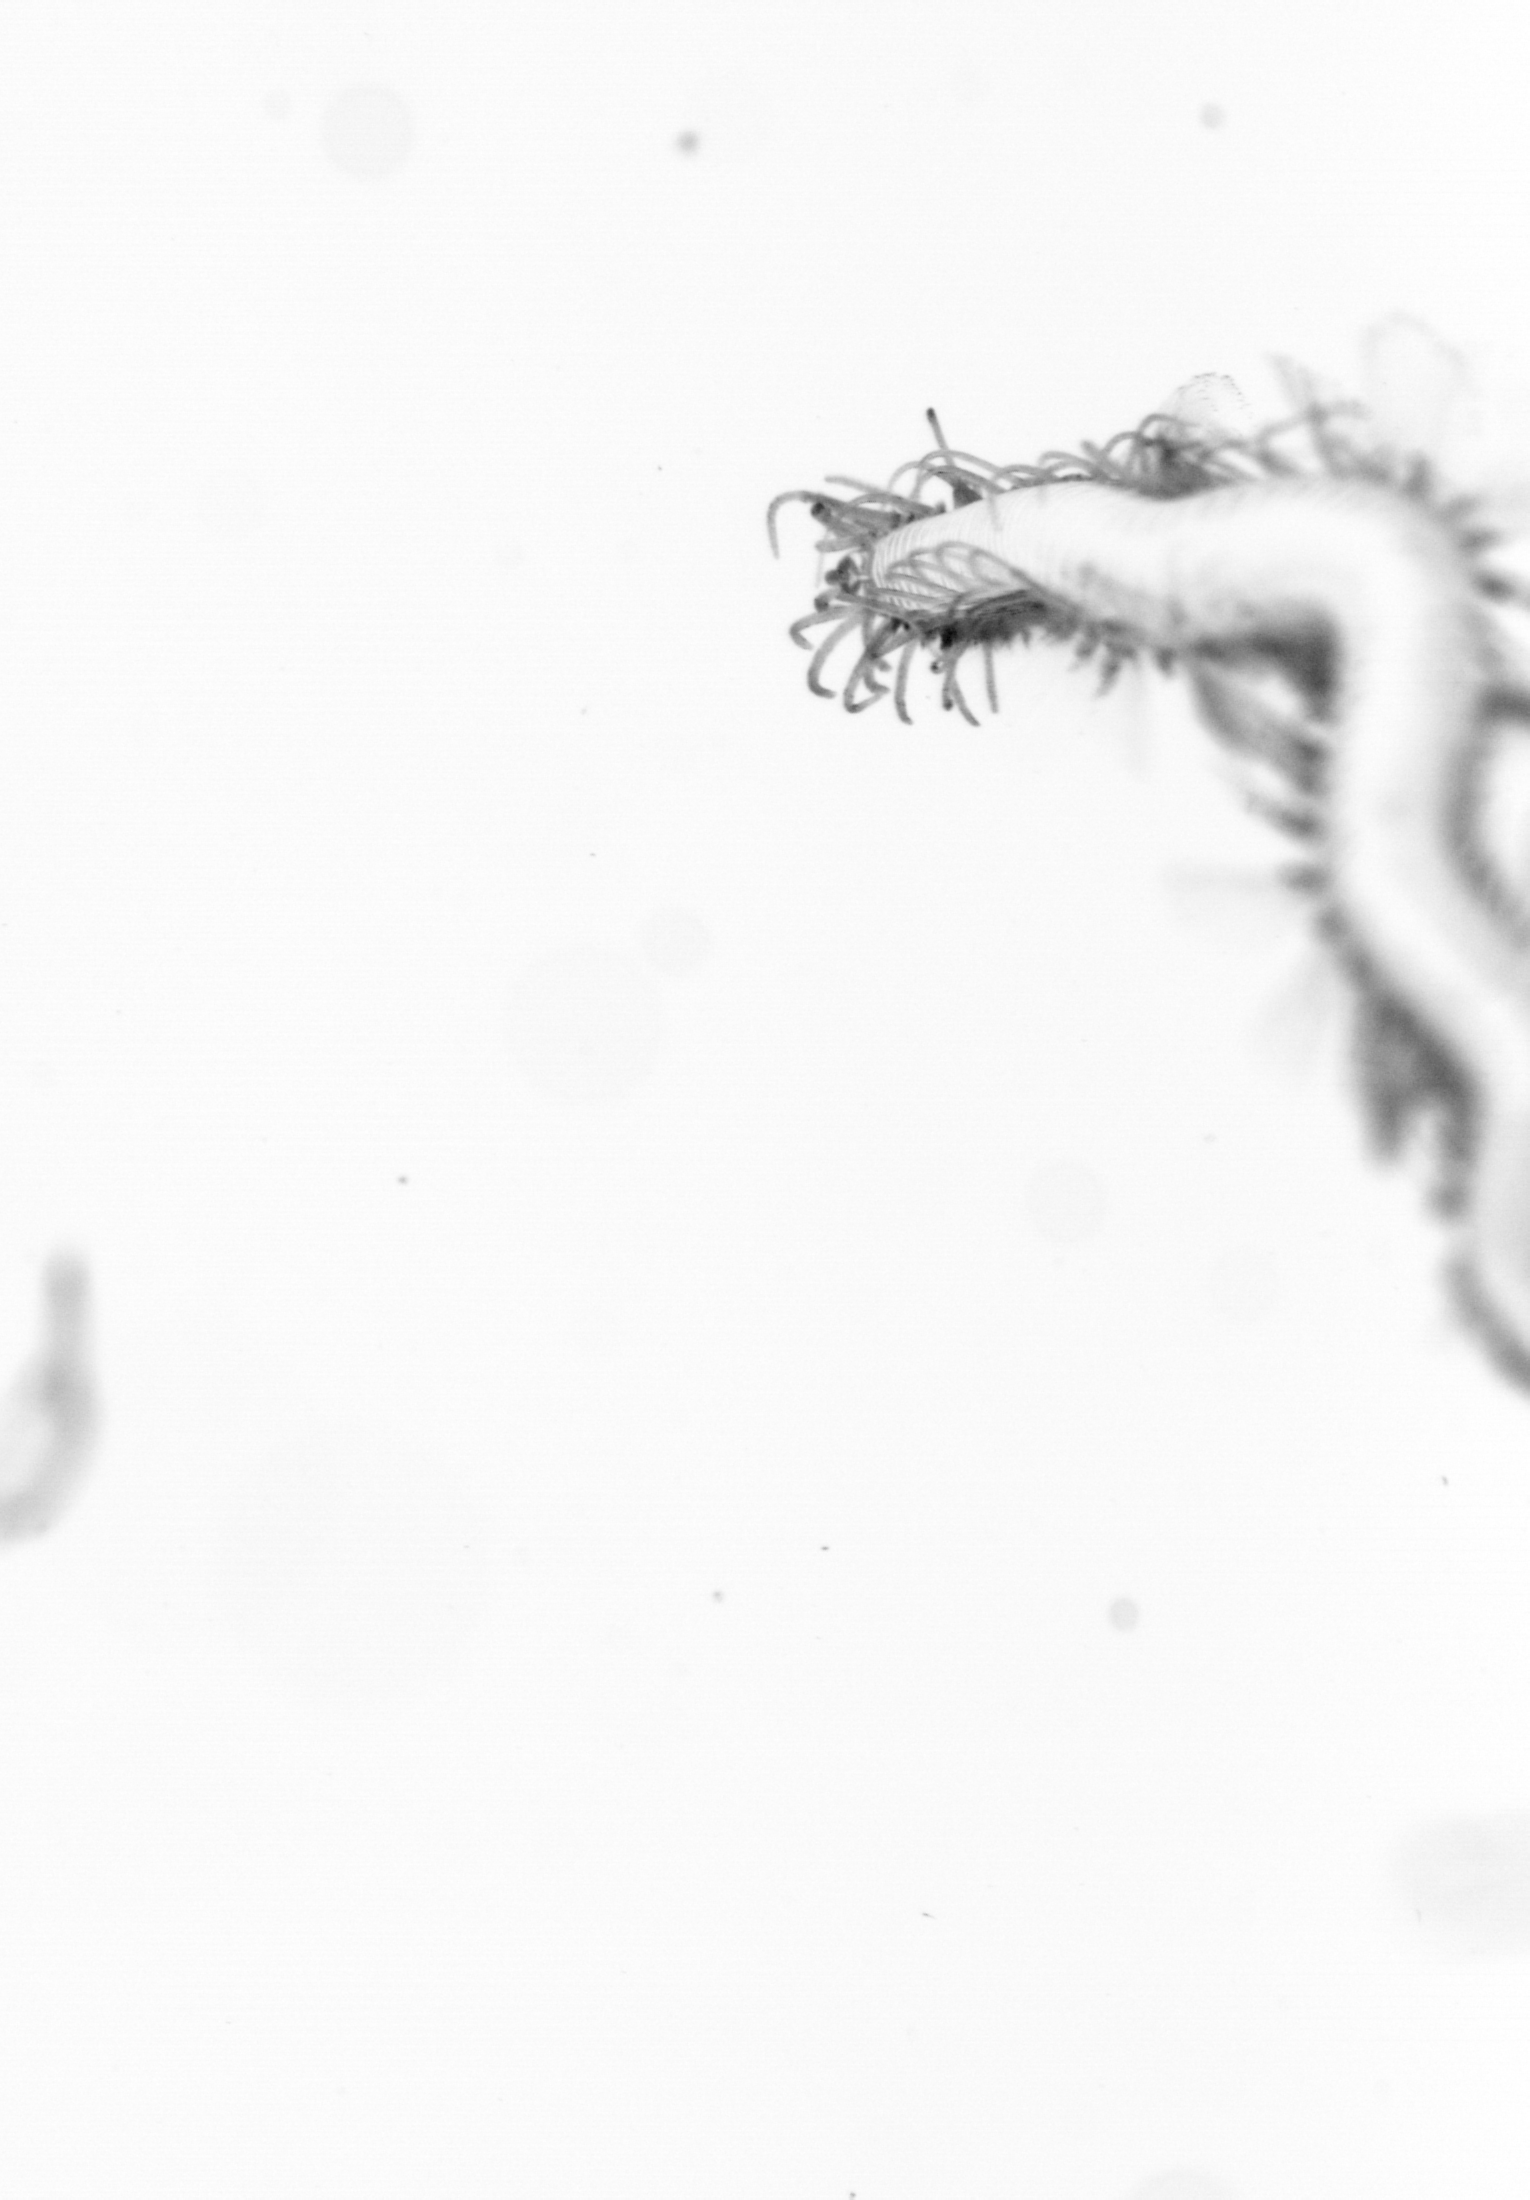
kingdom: Animalia
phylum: Annelida
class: Polychaeta
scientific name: Polychaeta
